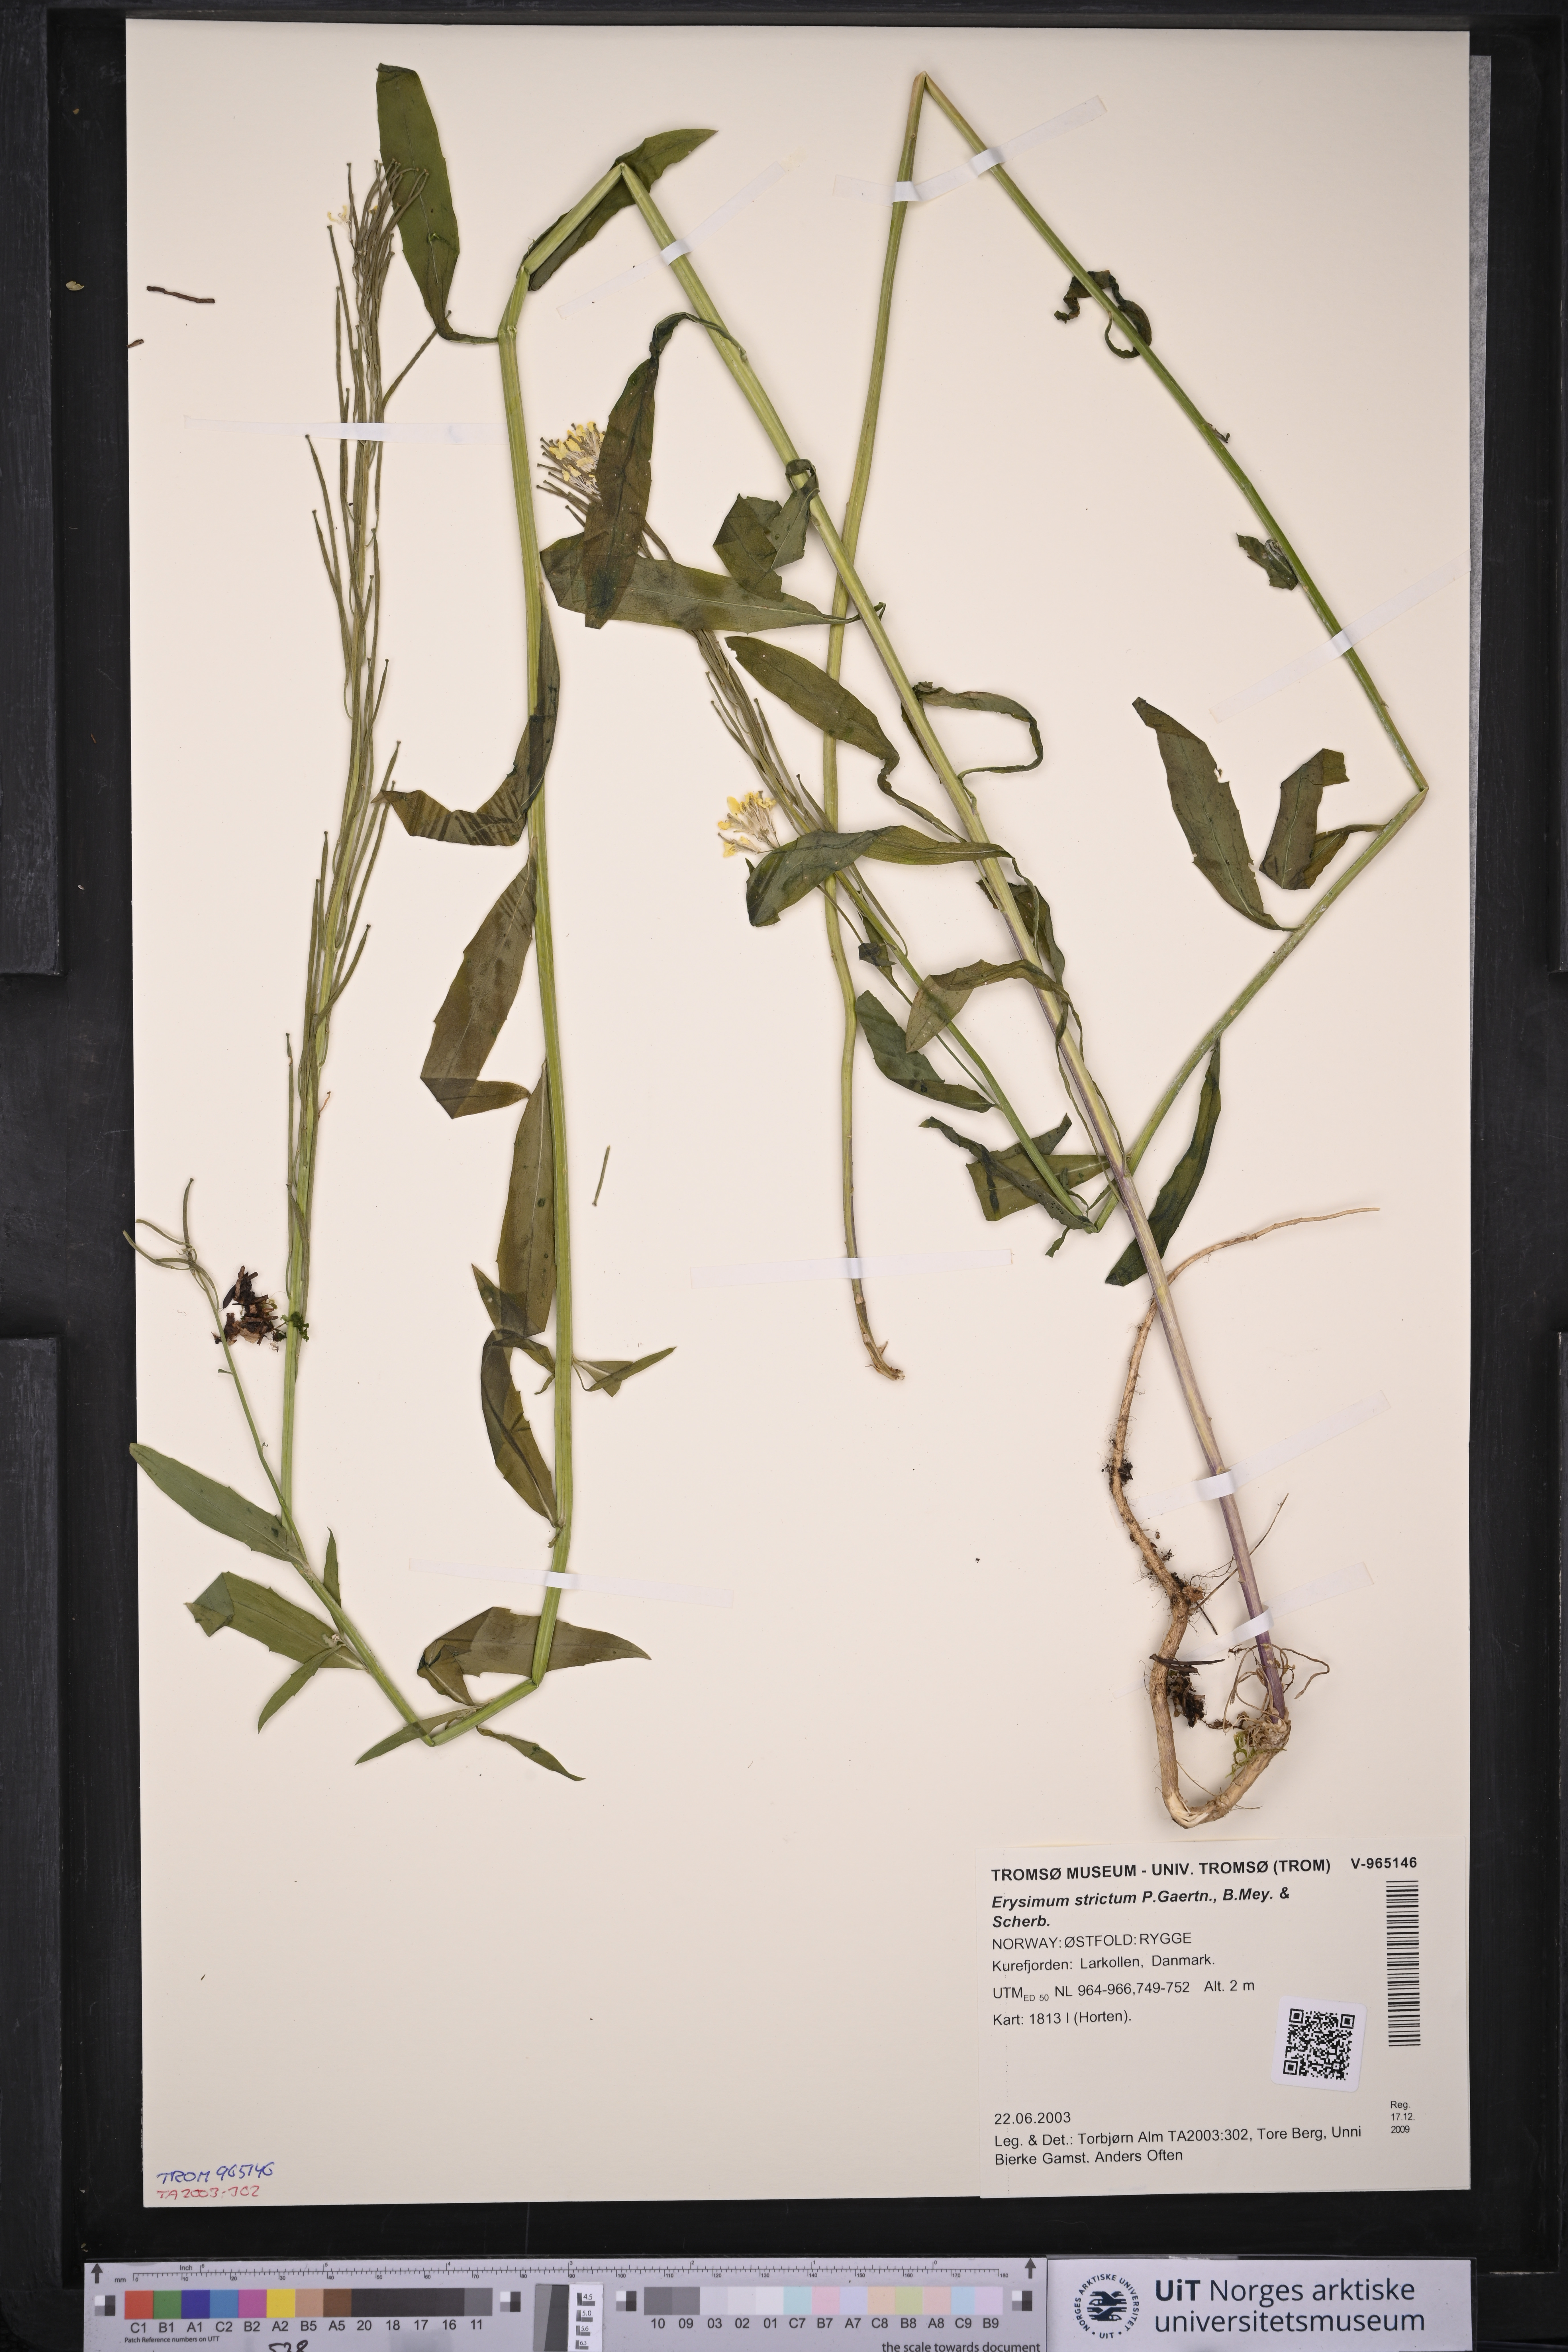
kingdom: Plantae
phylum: Tracheophyta
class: Magnoliopsida
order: Brassicales
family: Brassicaceae
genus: Erysimum
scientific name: Erysimum virgatum
